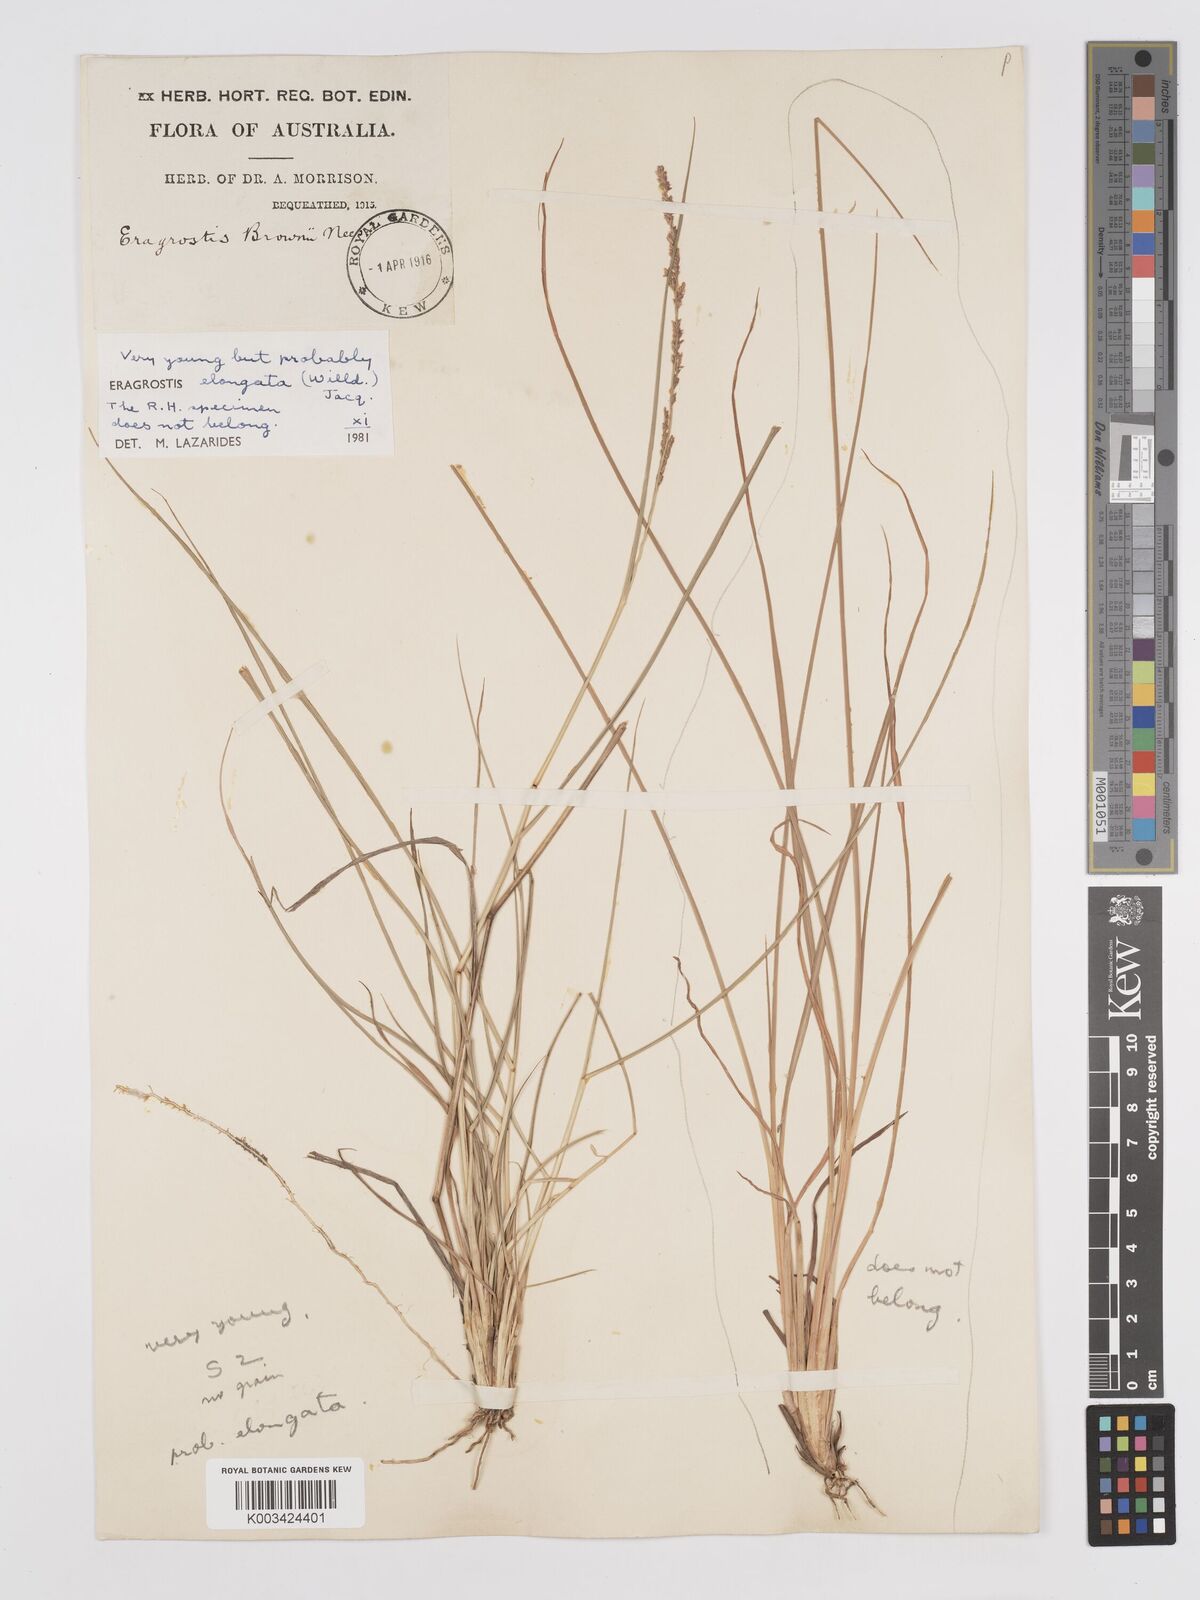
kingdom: Plantae
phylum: Tracheophyta
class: Liliopsida
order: Poales
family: Poaceae
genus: Eragrostis
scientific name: Eragrostis elongata
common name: Long lovegrass
